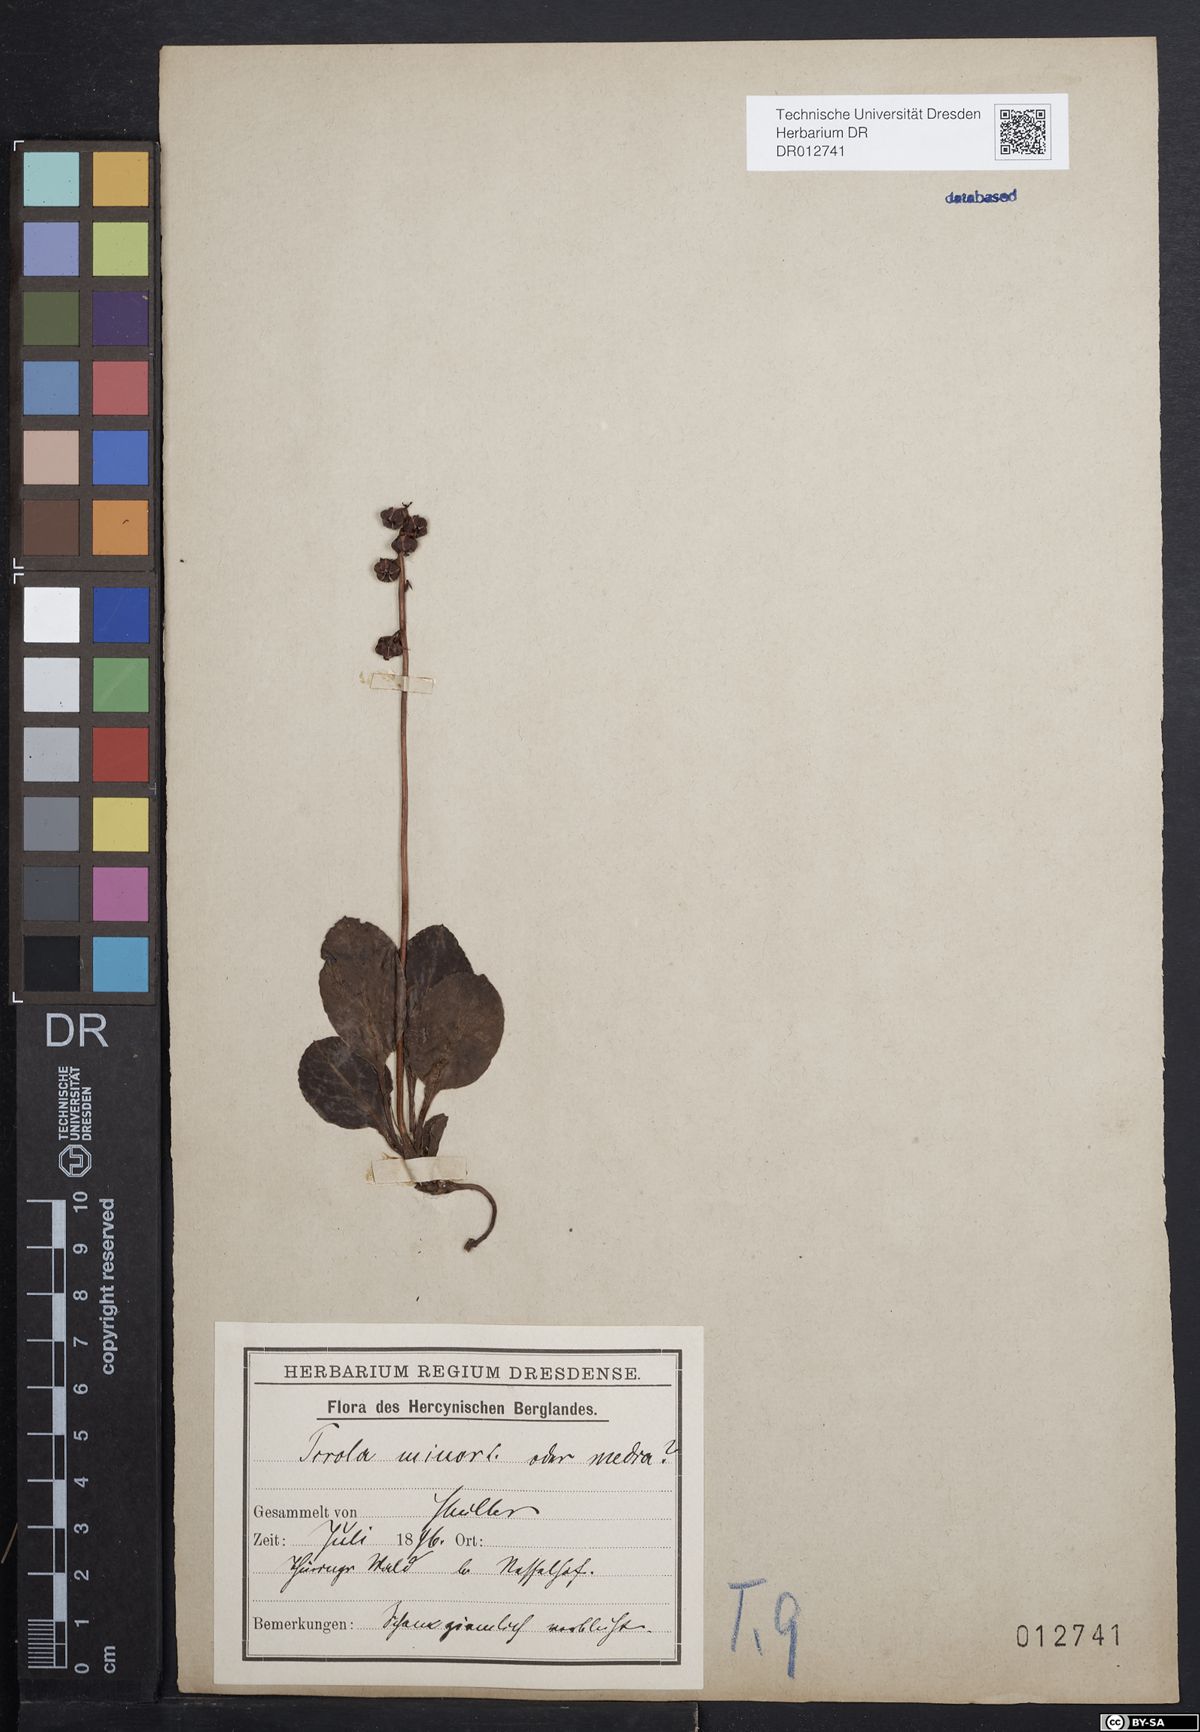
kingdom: Plantae
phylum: Tracheophyta
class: Magnoliopsida
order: Ericales
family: Ericaceae
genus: Pyrola
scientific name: Pyrola minor
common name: Common wintergreen
